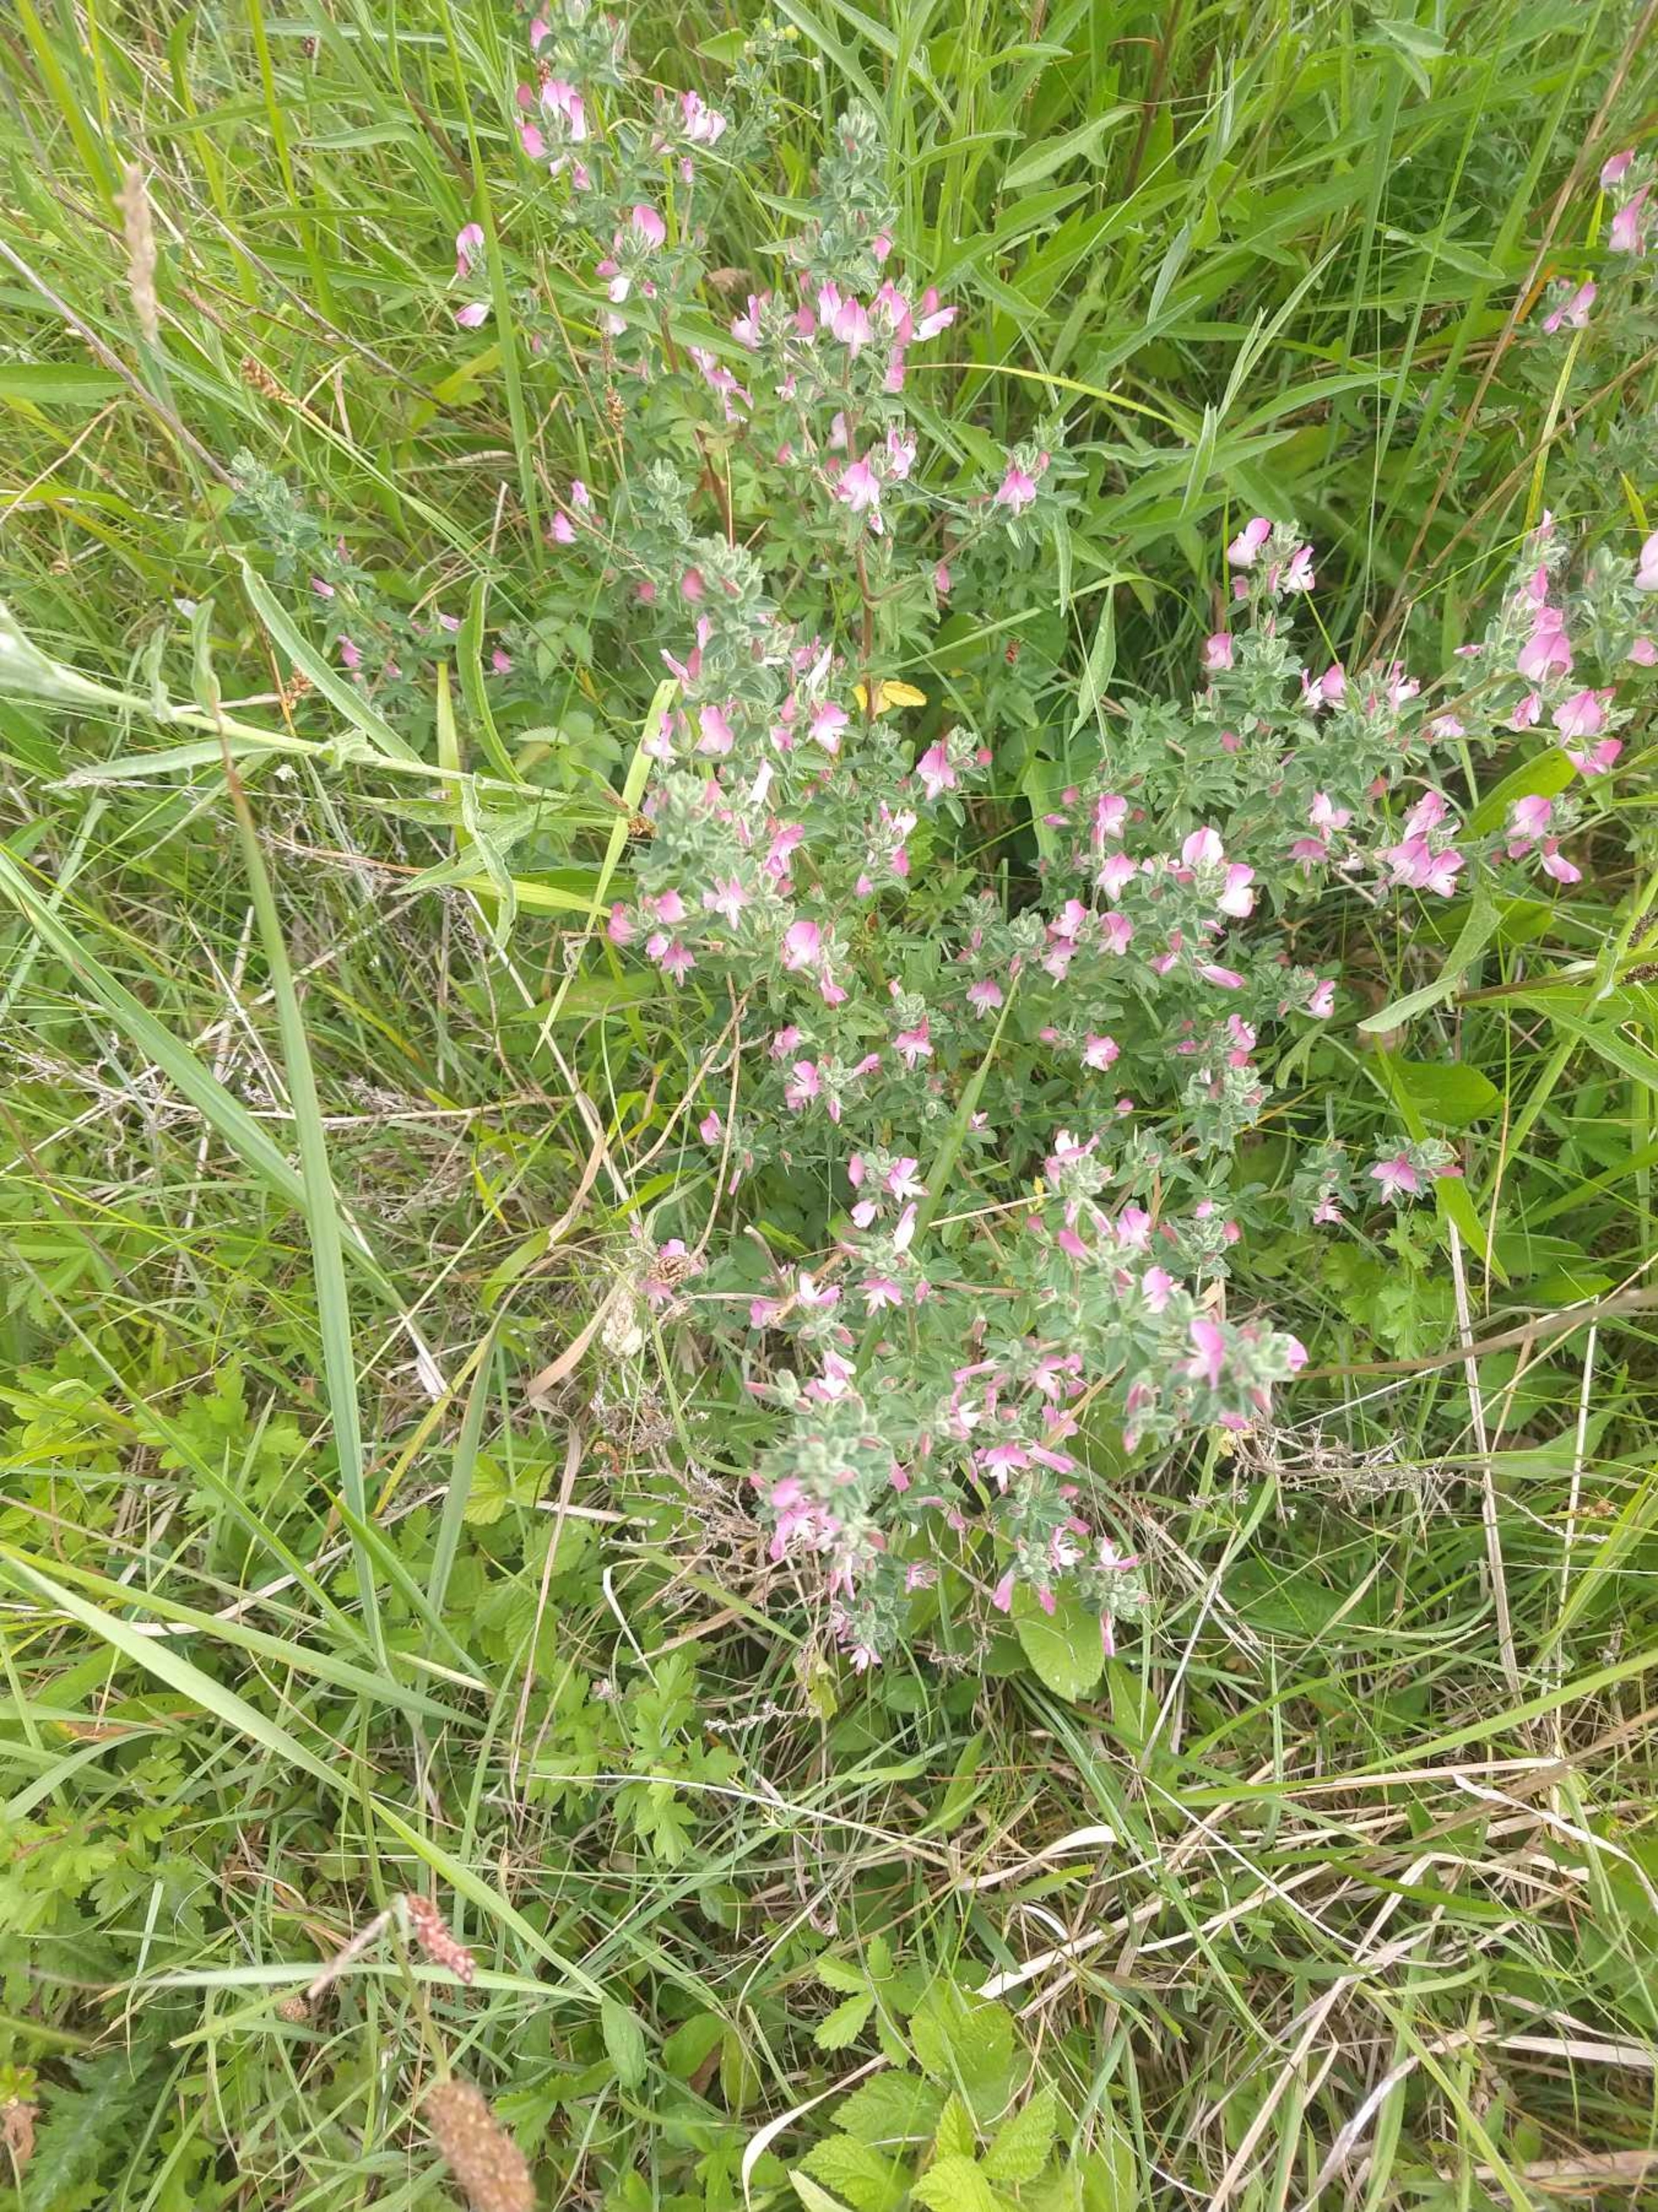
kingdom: Plantae
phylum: Tracheophyta
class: Magnoliopsida
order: Fabales
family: Fabaceae
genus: Ononis
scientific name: Ononis spinosa
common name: Mark-krageklo
